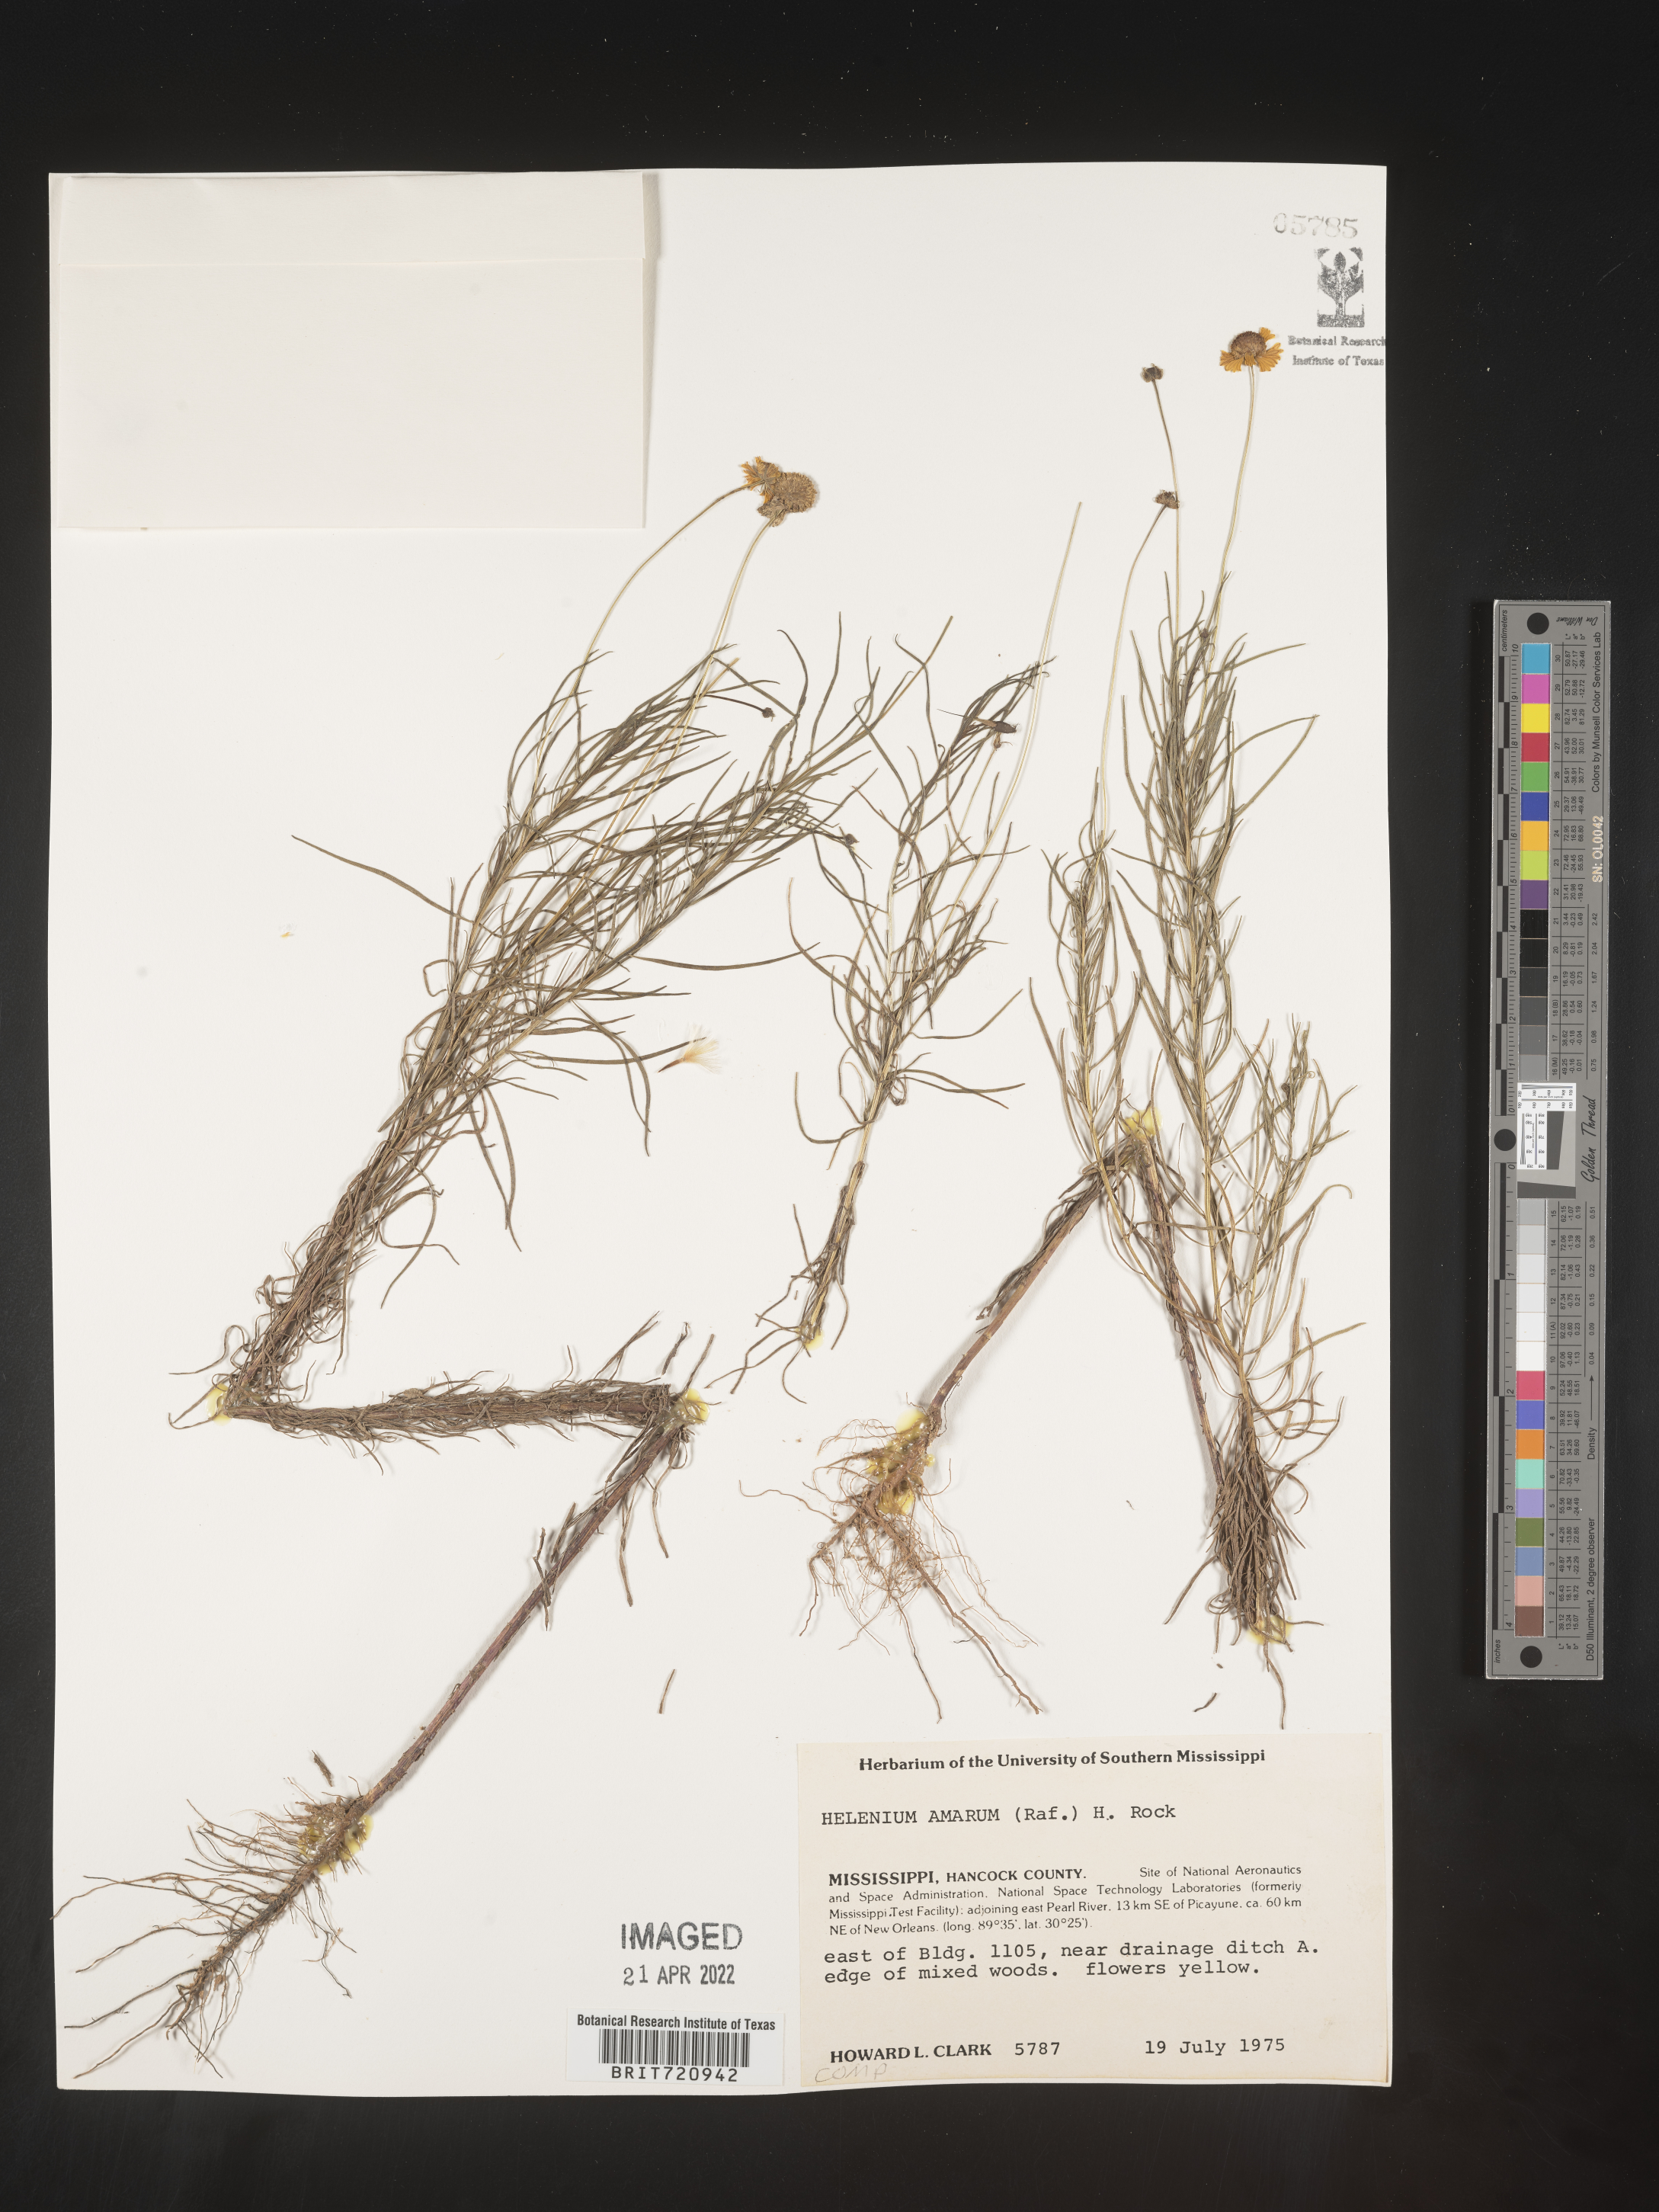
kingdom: Plantae
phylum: Tracheophyta
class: Magnoliopsida
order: Asterales
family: Asteraceae
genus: Helenium
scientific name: Helenium amarum
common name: Bitter sneezeweed
